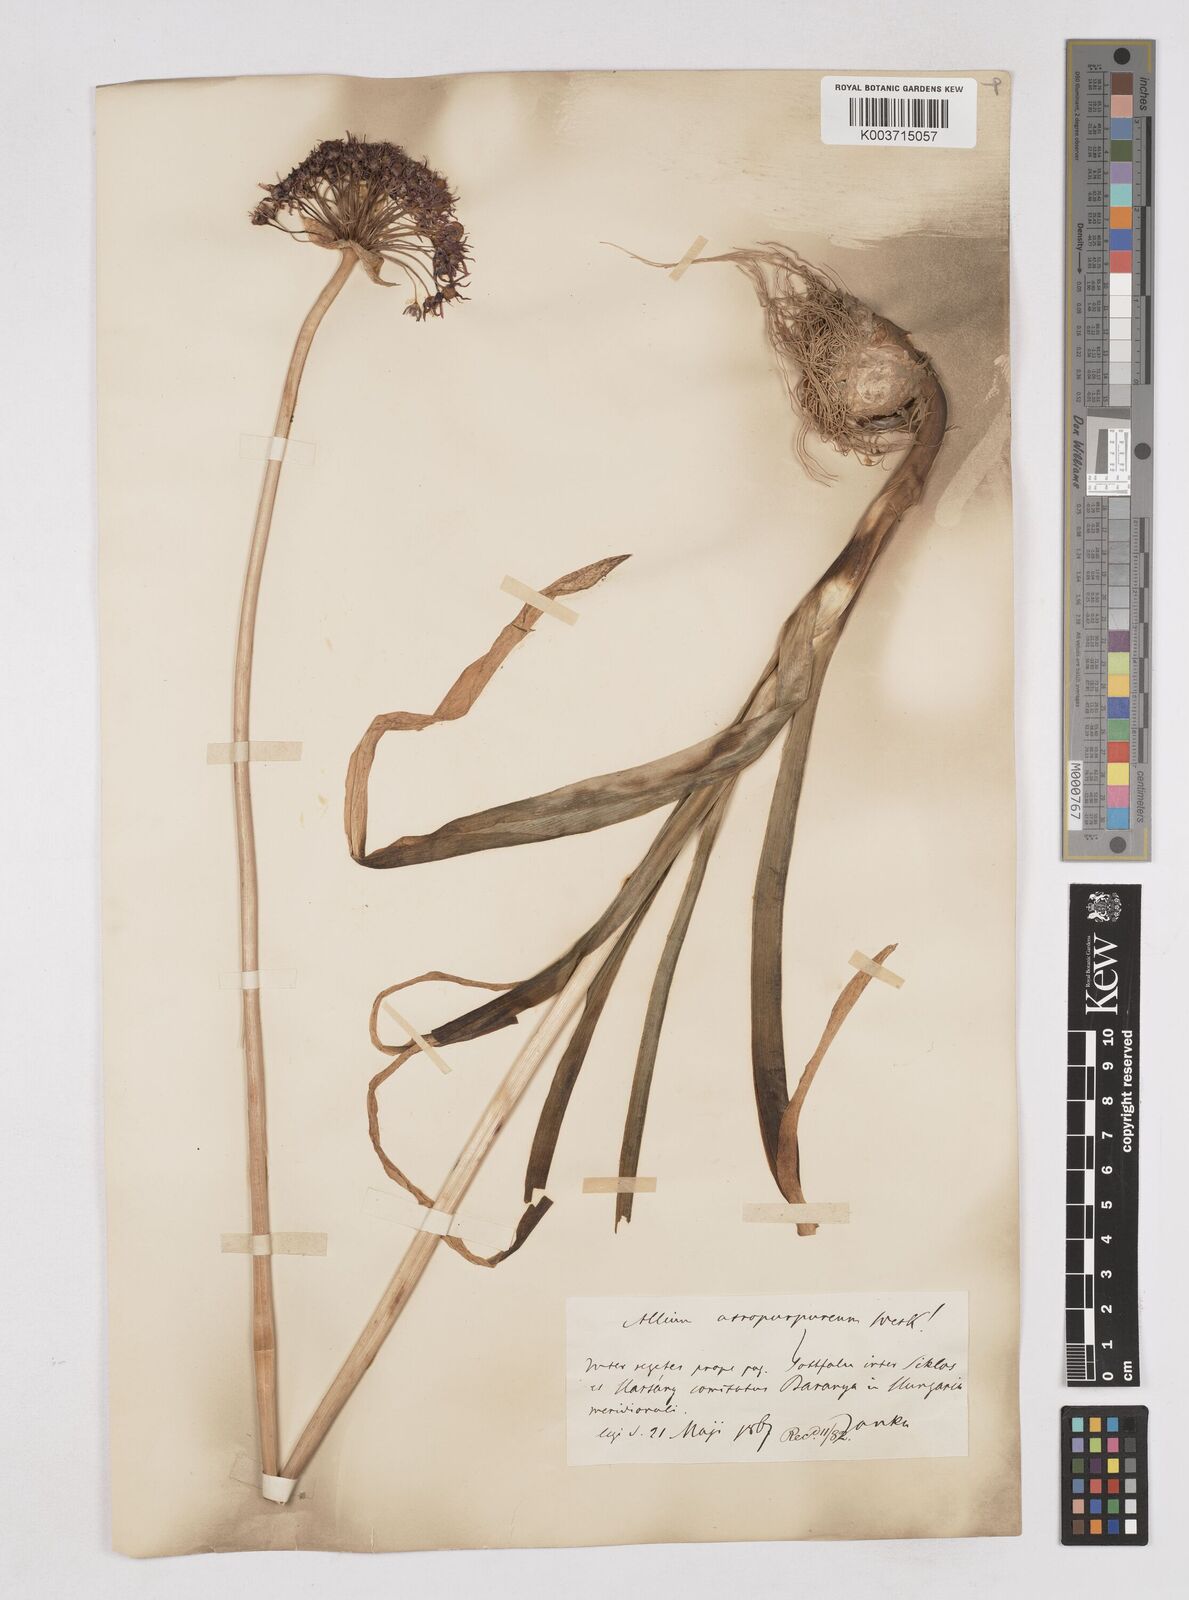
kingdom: Plantae
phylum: Tracheophyta
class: Liliopsida
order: Asparagales
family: Amaryllidaceae
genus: Allium
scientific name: Allium atropurpureum
